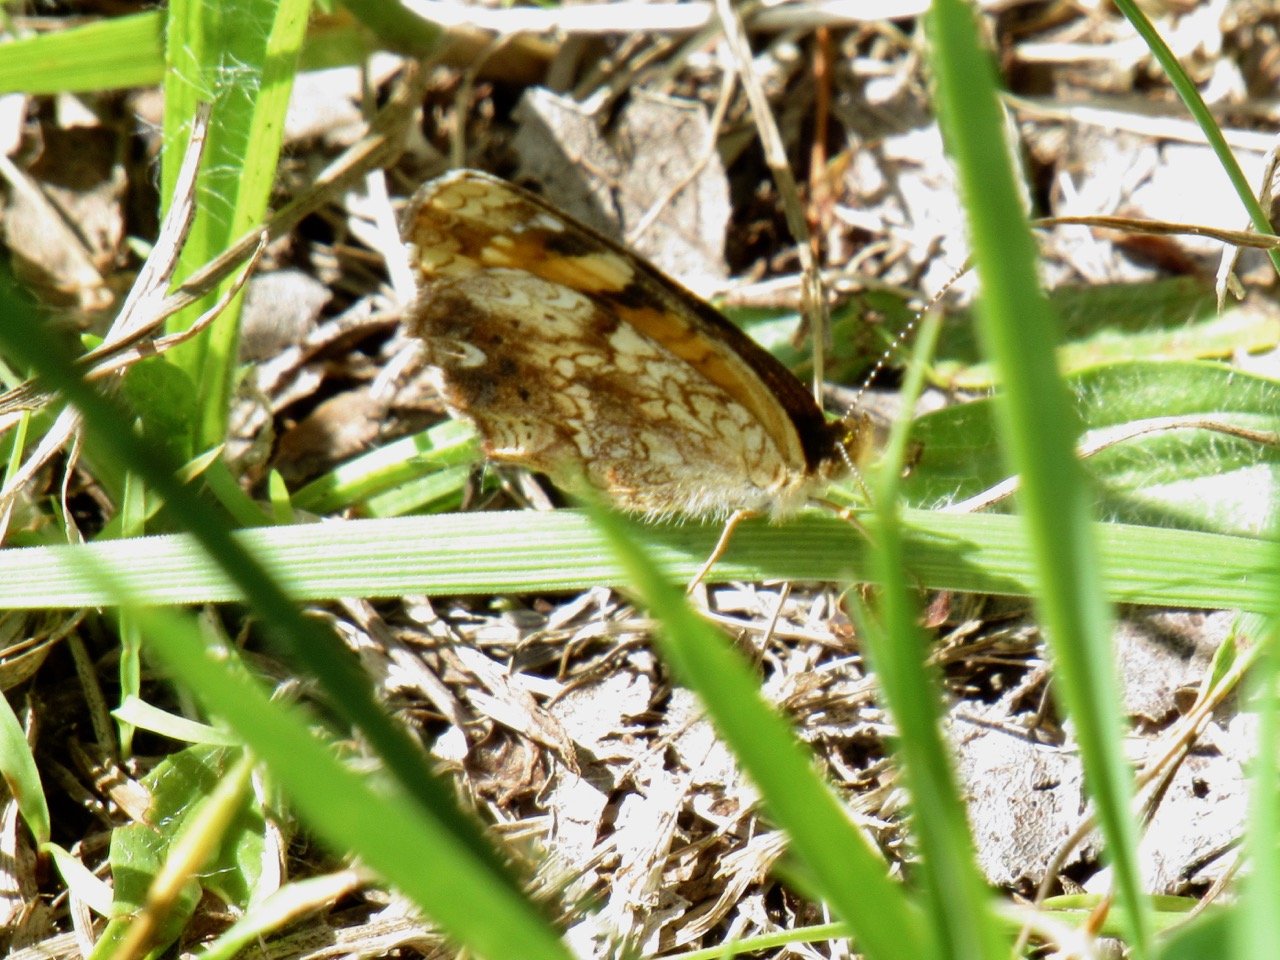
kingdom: Animalia
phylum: Arthropoda
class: Insecta
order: Lepidoptera
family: Nymphalidae
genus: Phyciodes
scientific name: Phyciodes tharos
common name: Pearl Crescent
